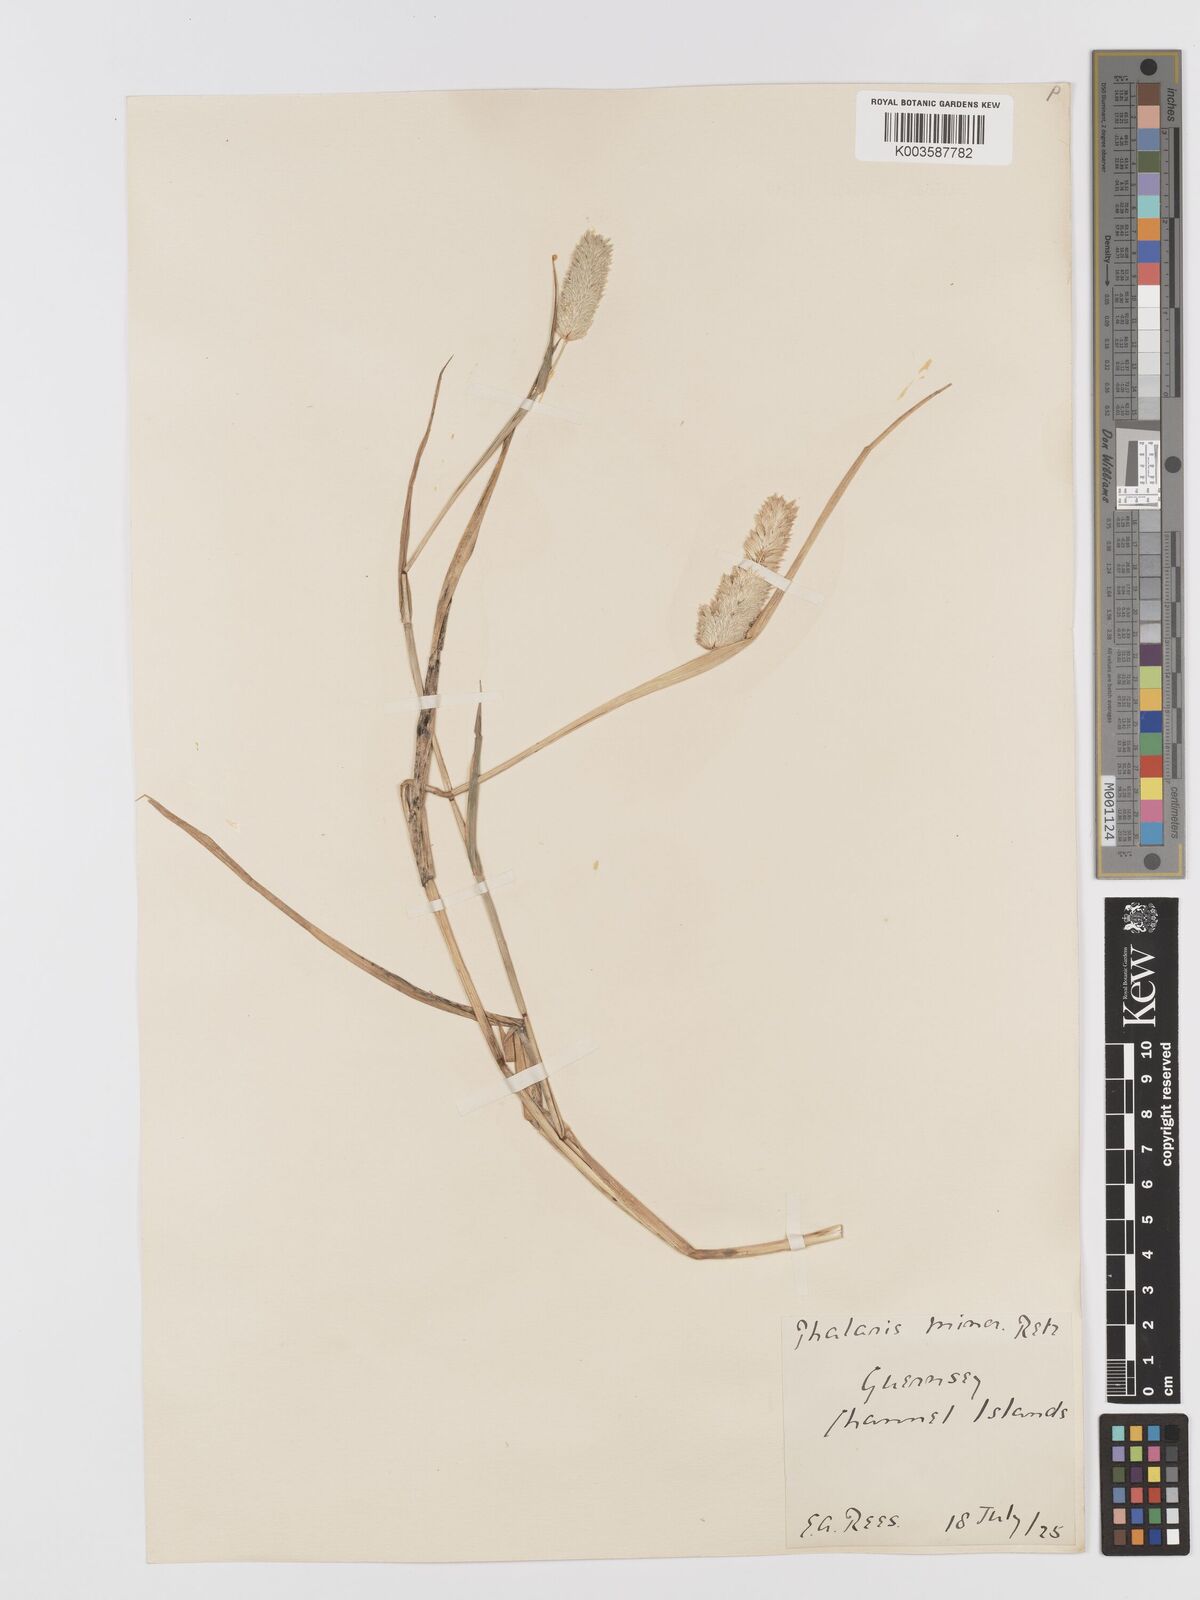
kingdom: Plantae
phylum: Tracheophyta
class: Liliopsida
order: Poales
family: Poaceae
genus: Phalaris
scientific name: Phalaris minor
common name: Littleseed canarygrass
